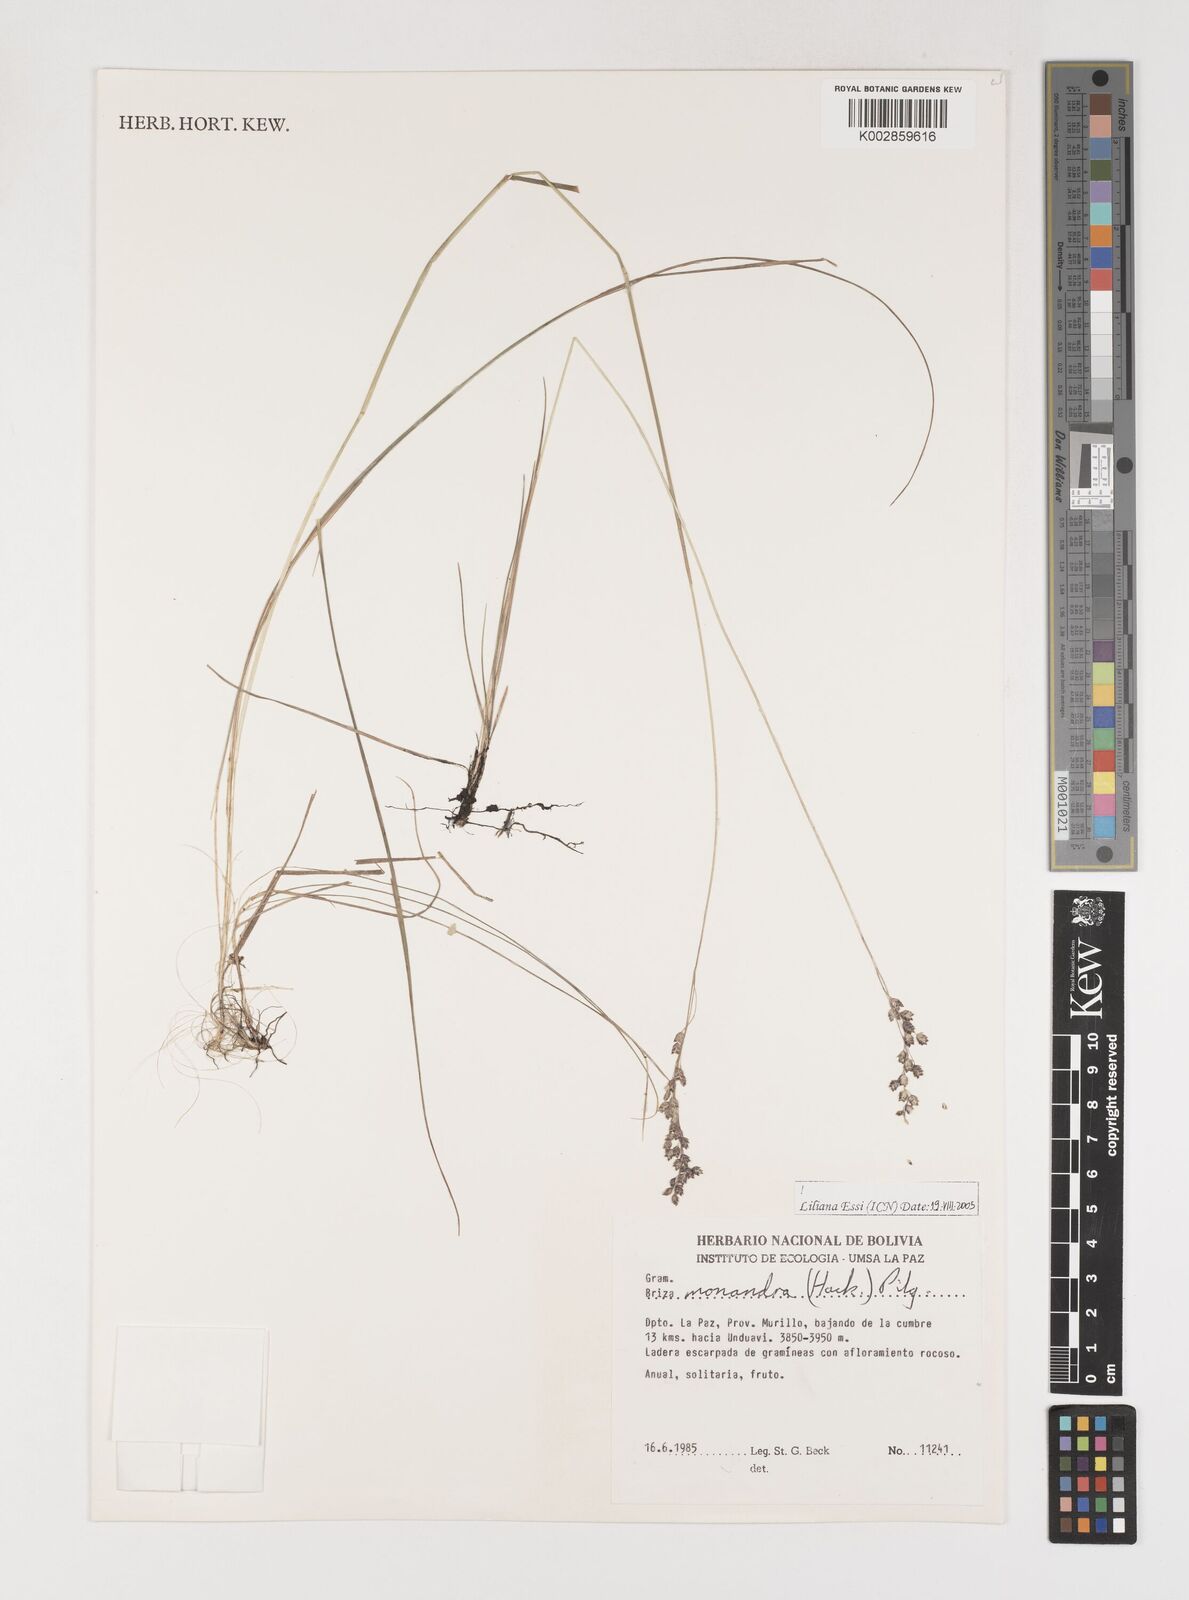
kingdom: Plantae
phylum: Tracheophyta
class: Liliopsida
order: Poales
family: Poaceae
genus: Poidium
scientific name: Poidium monandrum
